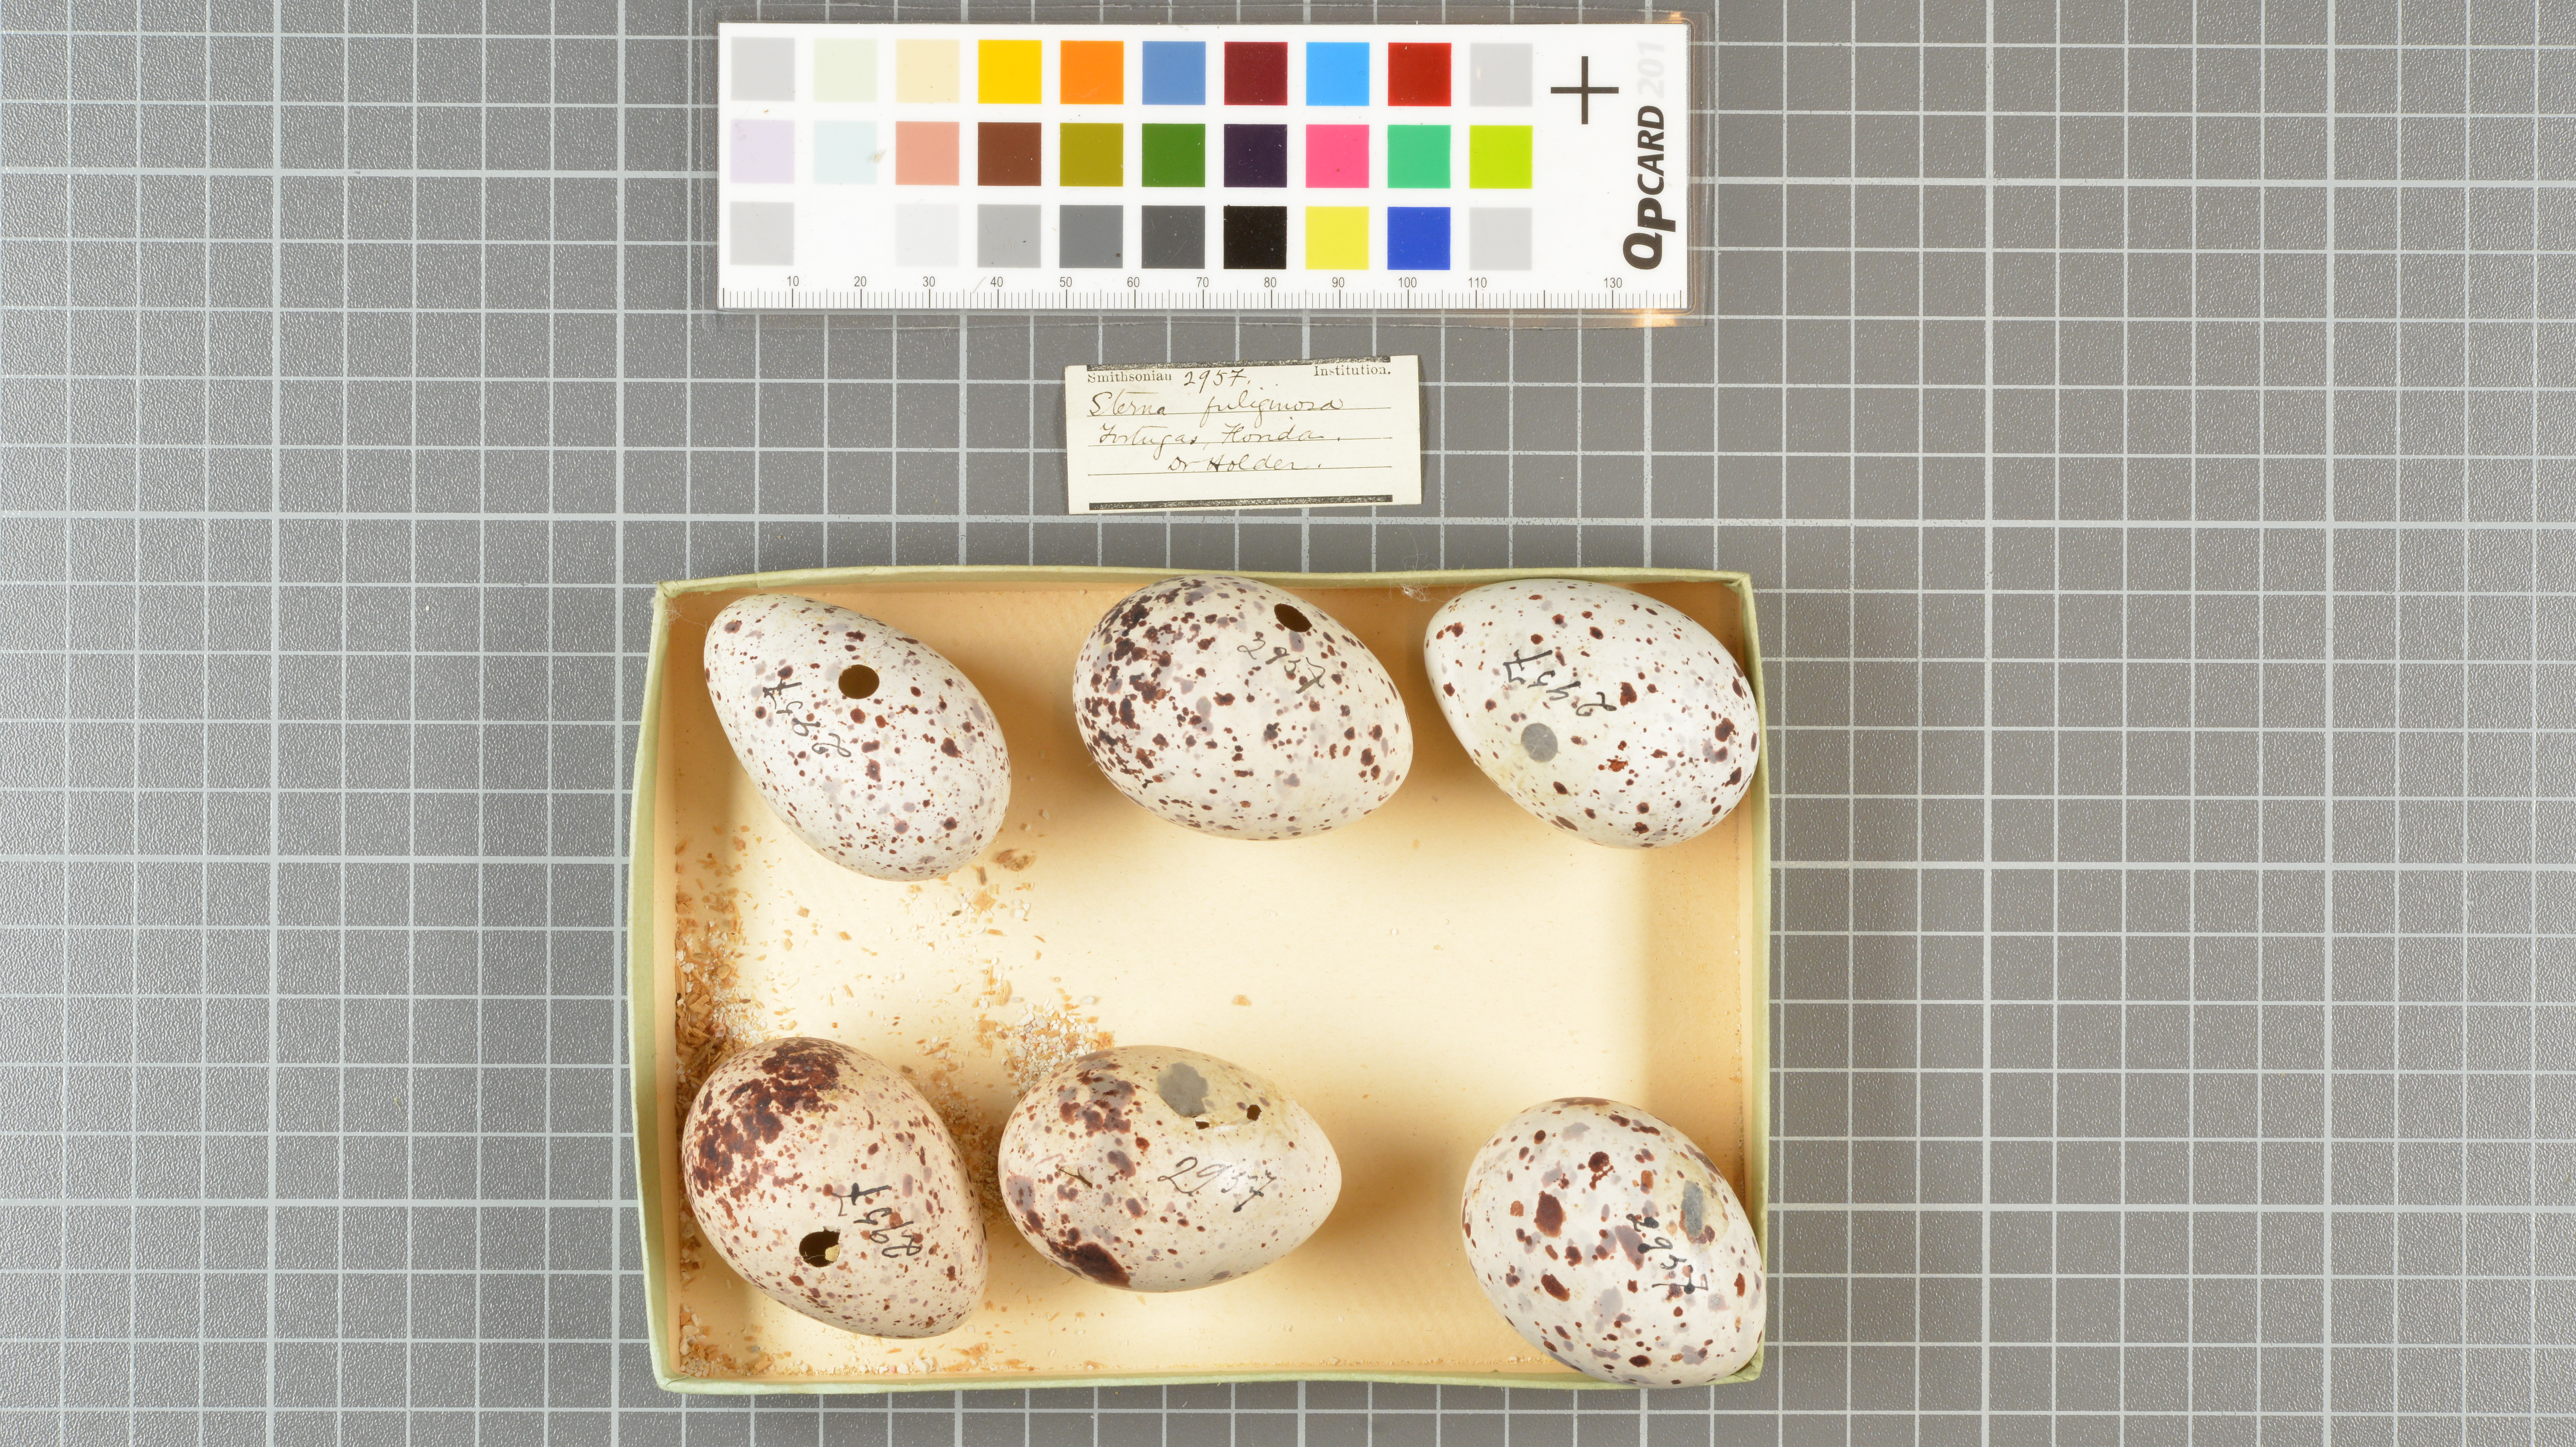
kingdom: Animalia
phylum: Chordata
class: Aves
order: Charadriiformes
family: Laridae
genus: Onychoprion
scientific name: Onychoprion fuscatus
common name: Sooty tern
